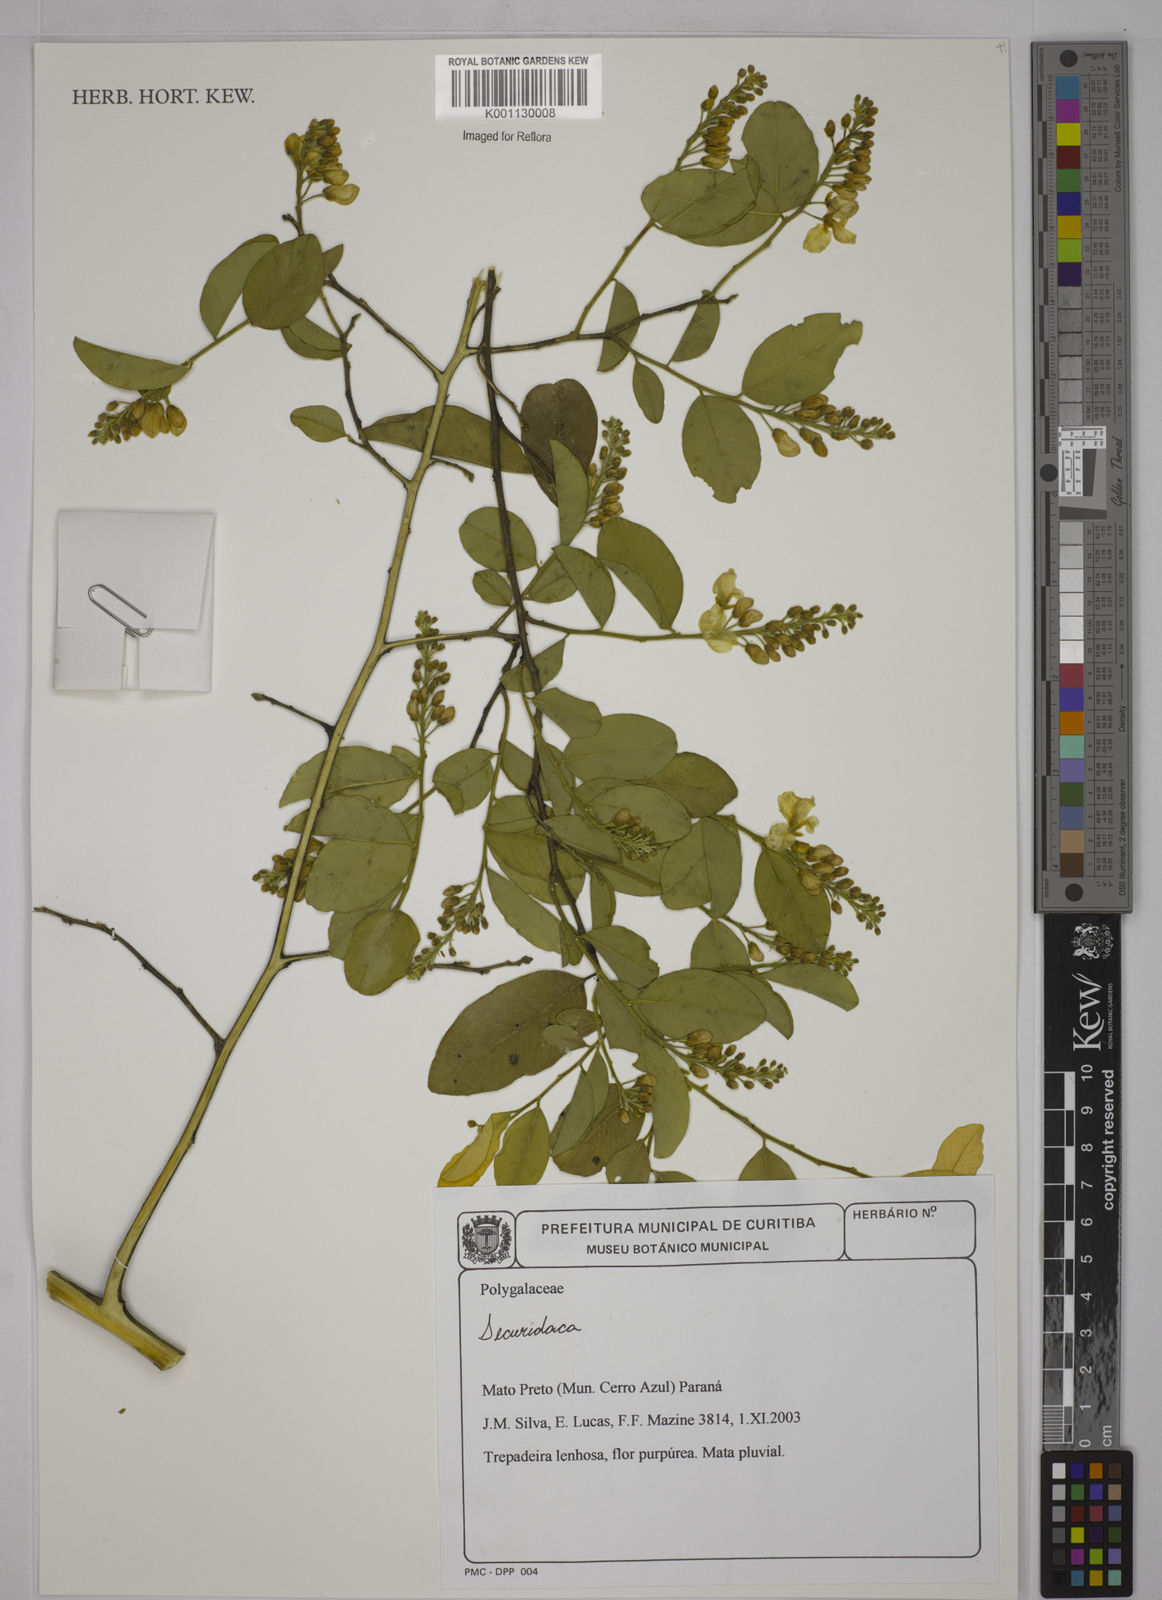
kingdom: Plantae
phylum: Tracheophyta
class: Magnoliopsida
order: Fabales
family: Polygalaceae
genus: Securidaca
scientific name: Securidaca
